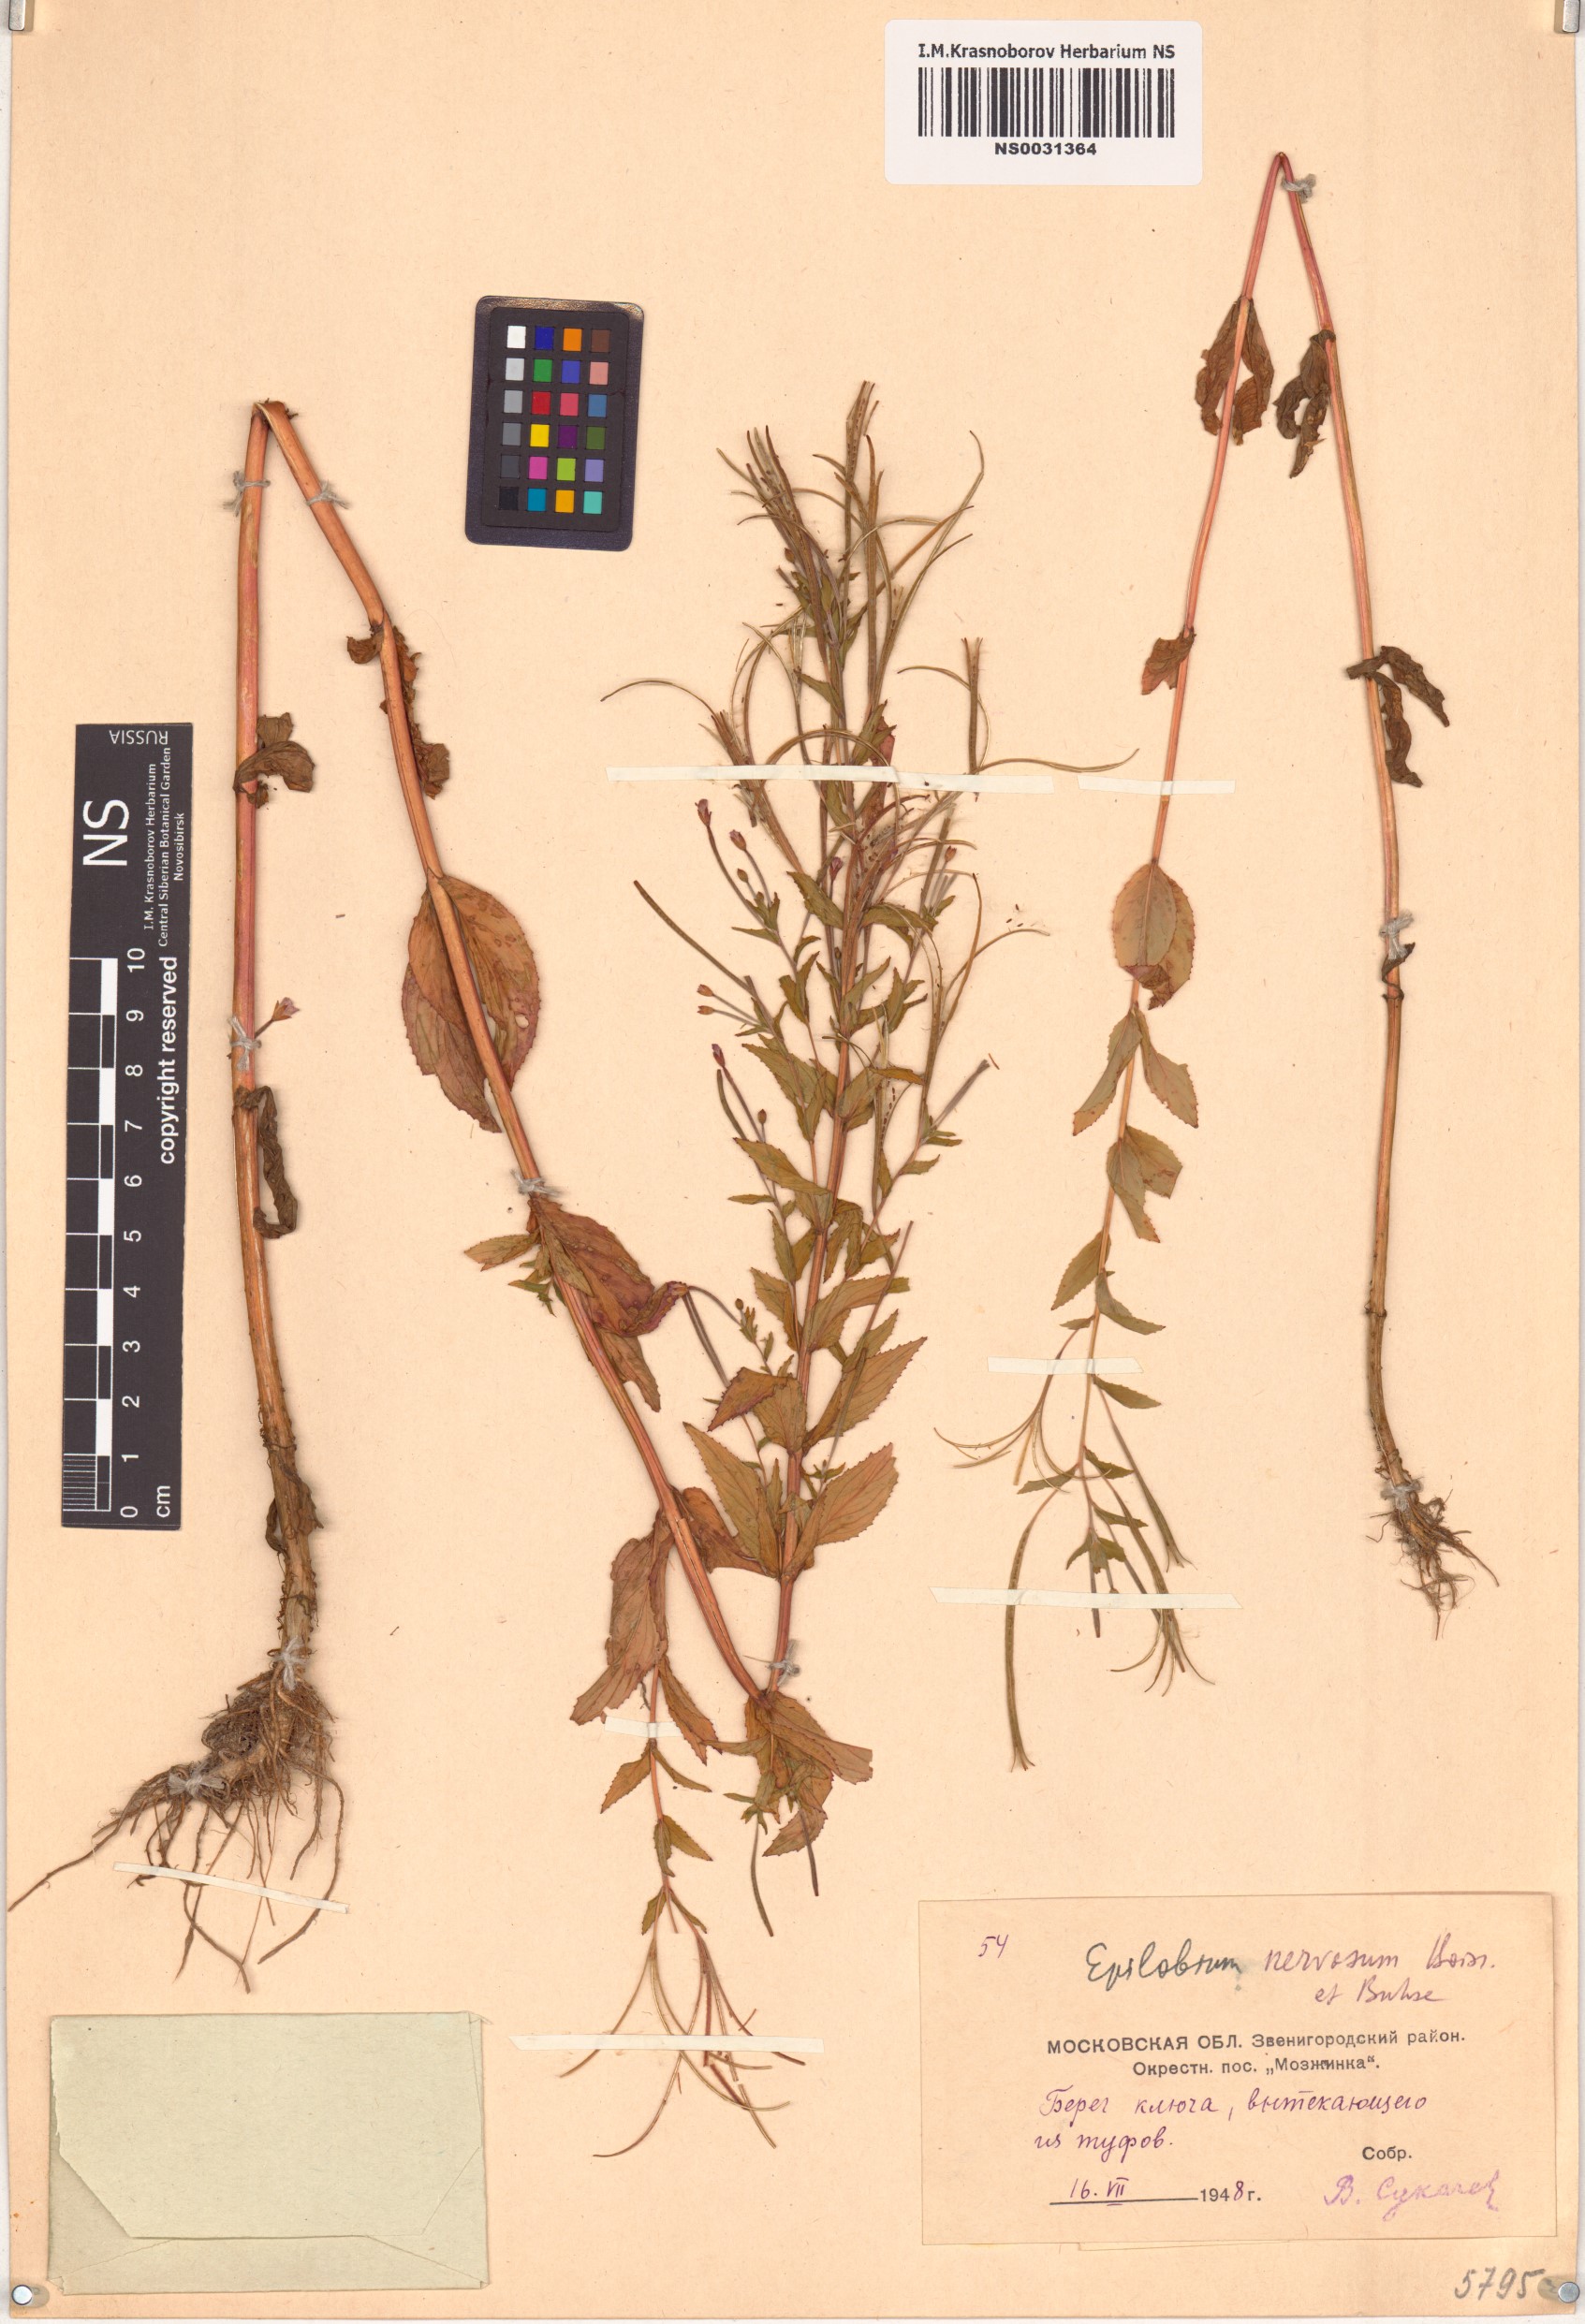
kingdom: Plantae
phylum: Tracheophyta
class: Magnoliopsida
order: Myrtales
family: Onagraceae
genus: Epilobium
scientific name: Epilobium roseum
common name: Pale willowherb
